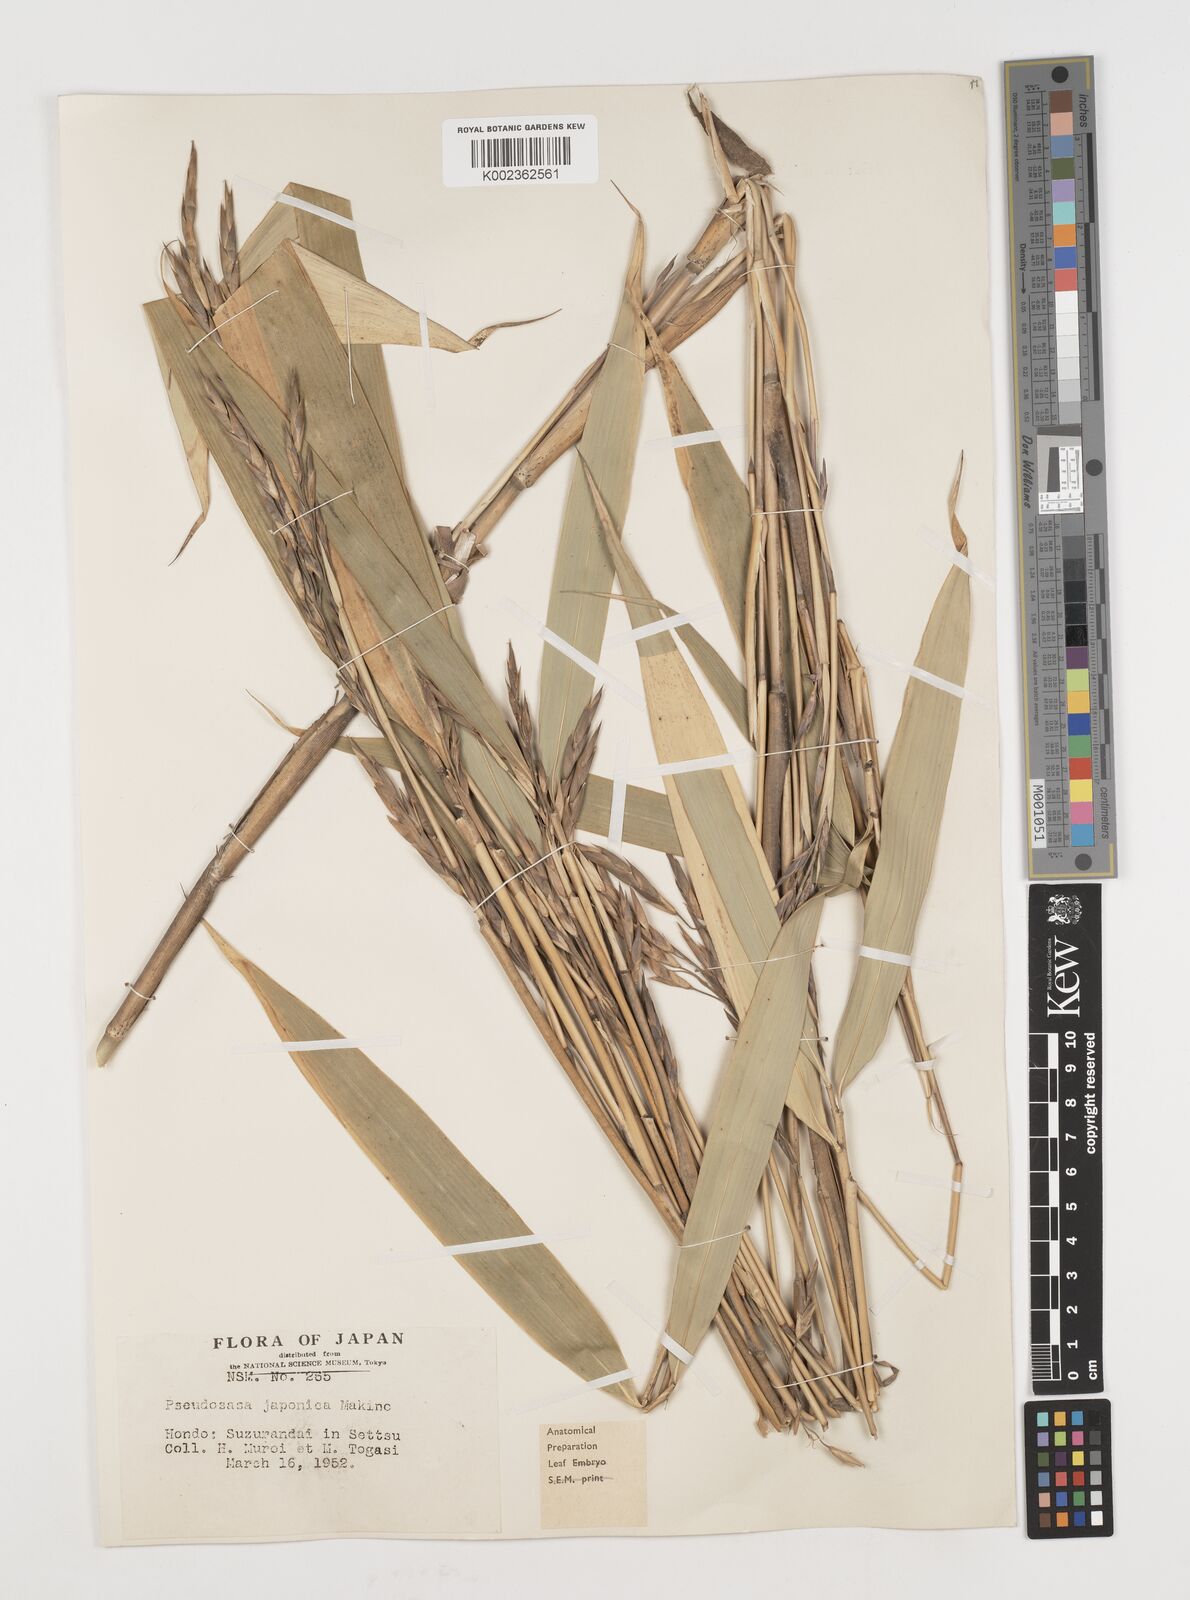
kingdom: Plantae
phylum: Tracheophyta
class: Liliopsida
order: Poales
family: Poaceae
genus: Pseudosasa
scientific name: Pseudosasa japonica
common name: Arrow bamboo
